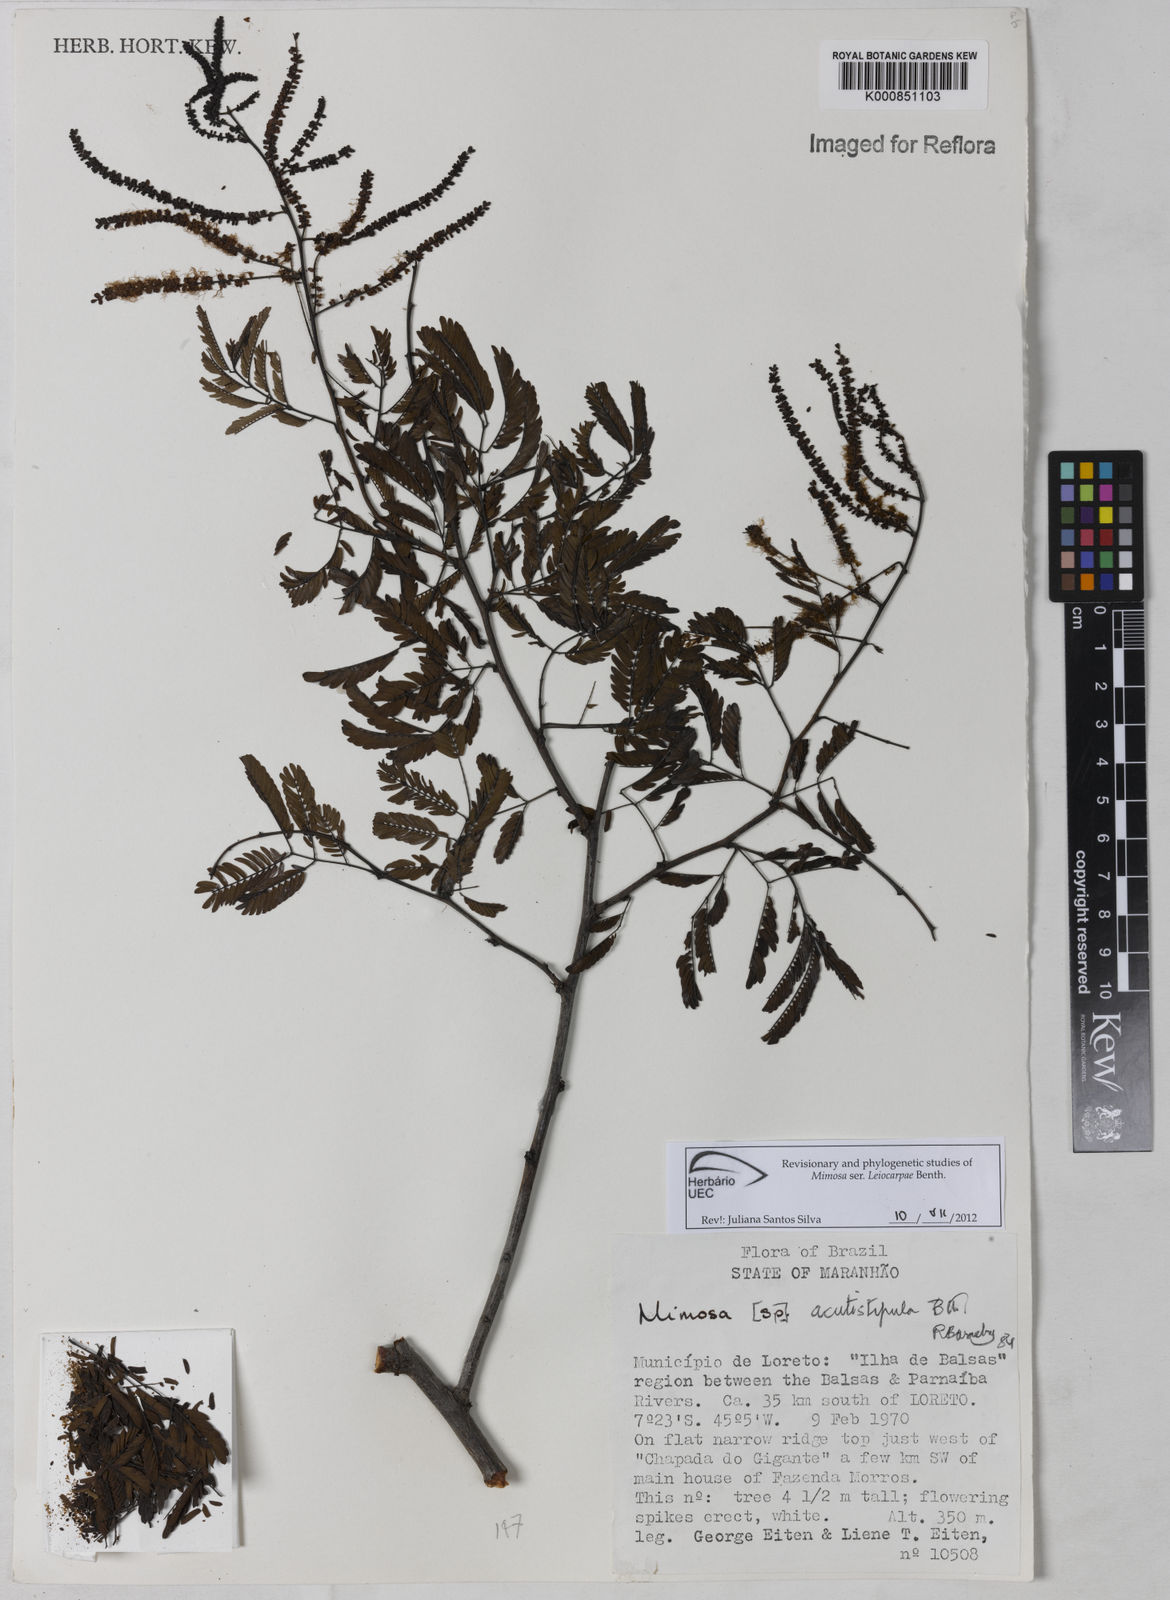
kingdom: Plantae
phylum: Tracheophyta
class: Magnoliopsida
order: Fabales
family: Fabaceae
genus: Mimosa
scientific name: Mimosa acutistipula
